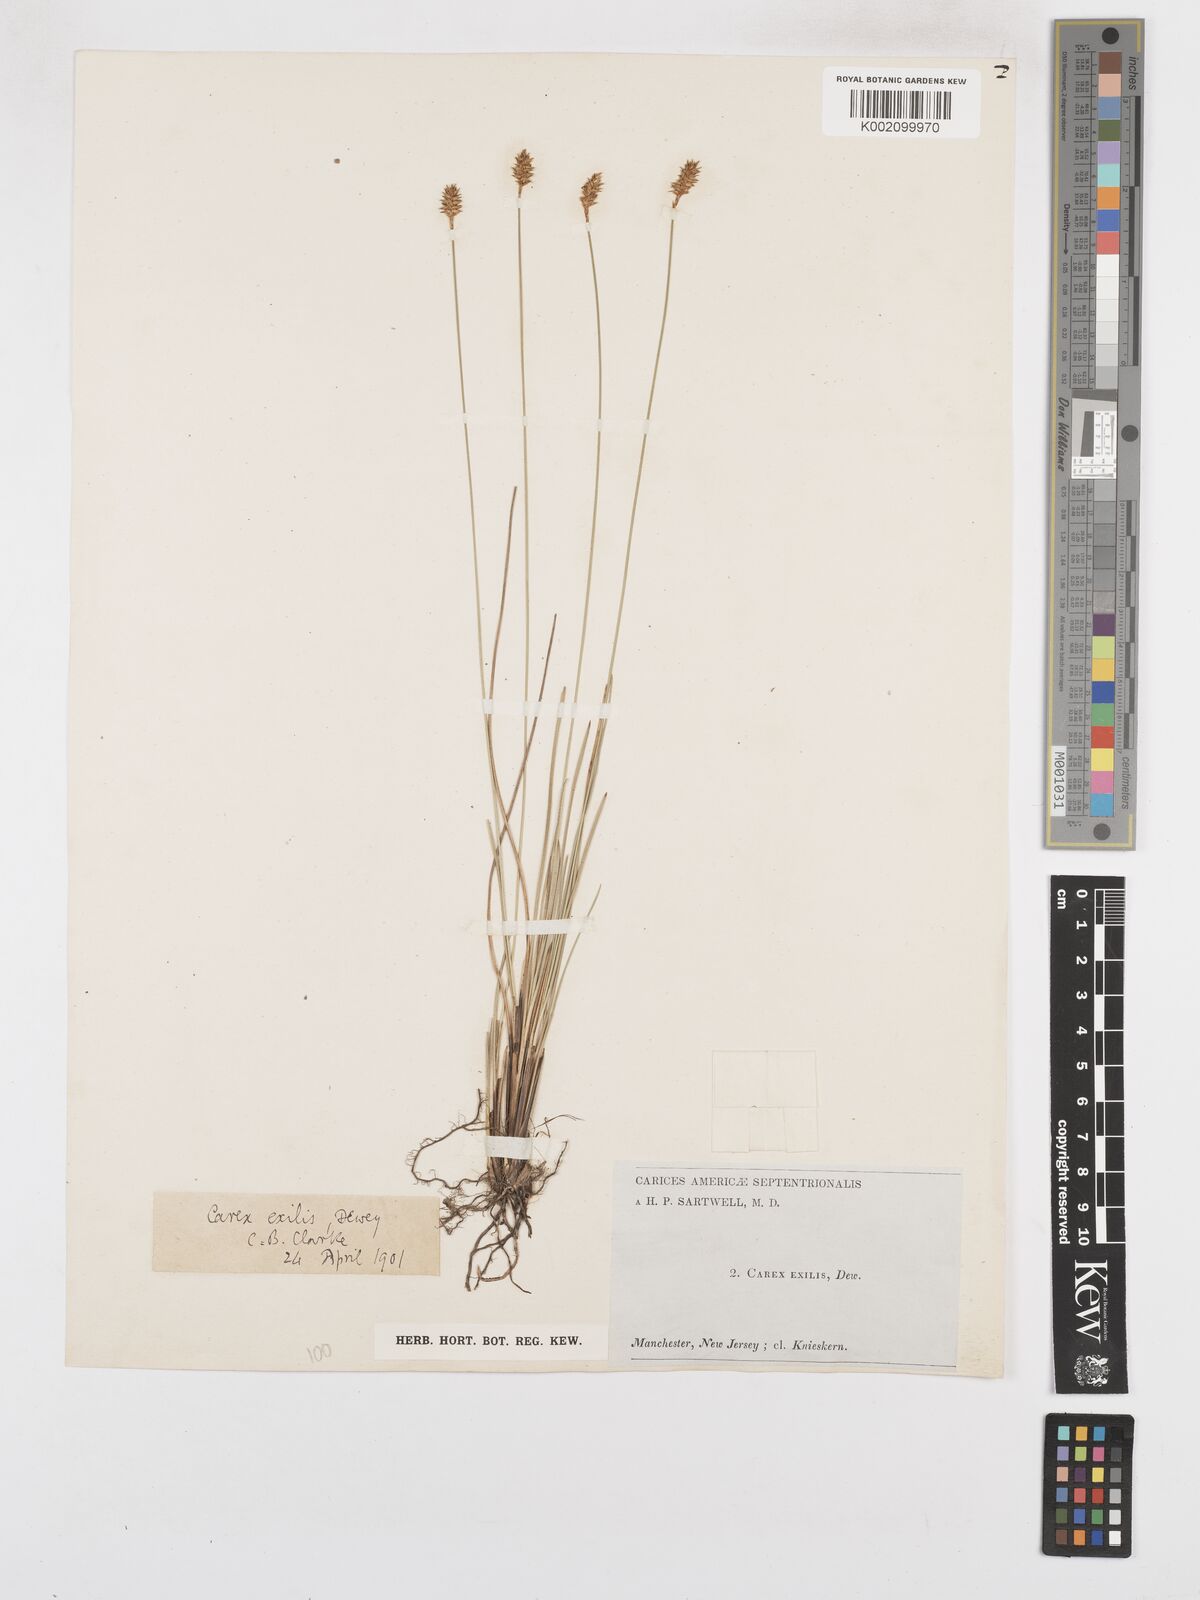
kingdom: Plantae
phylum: Tracheophyta
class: Liliopsida
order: Poales
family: Cyperaceae
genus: Carex
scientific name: Carex exilis
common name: Coastal sedge
